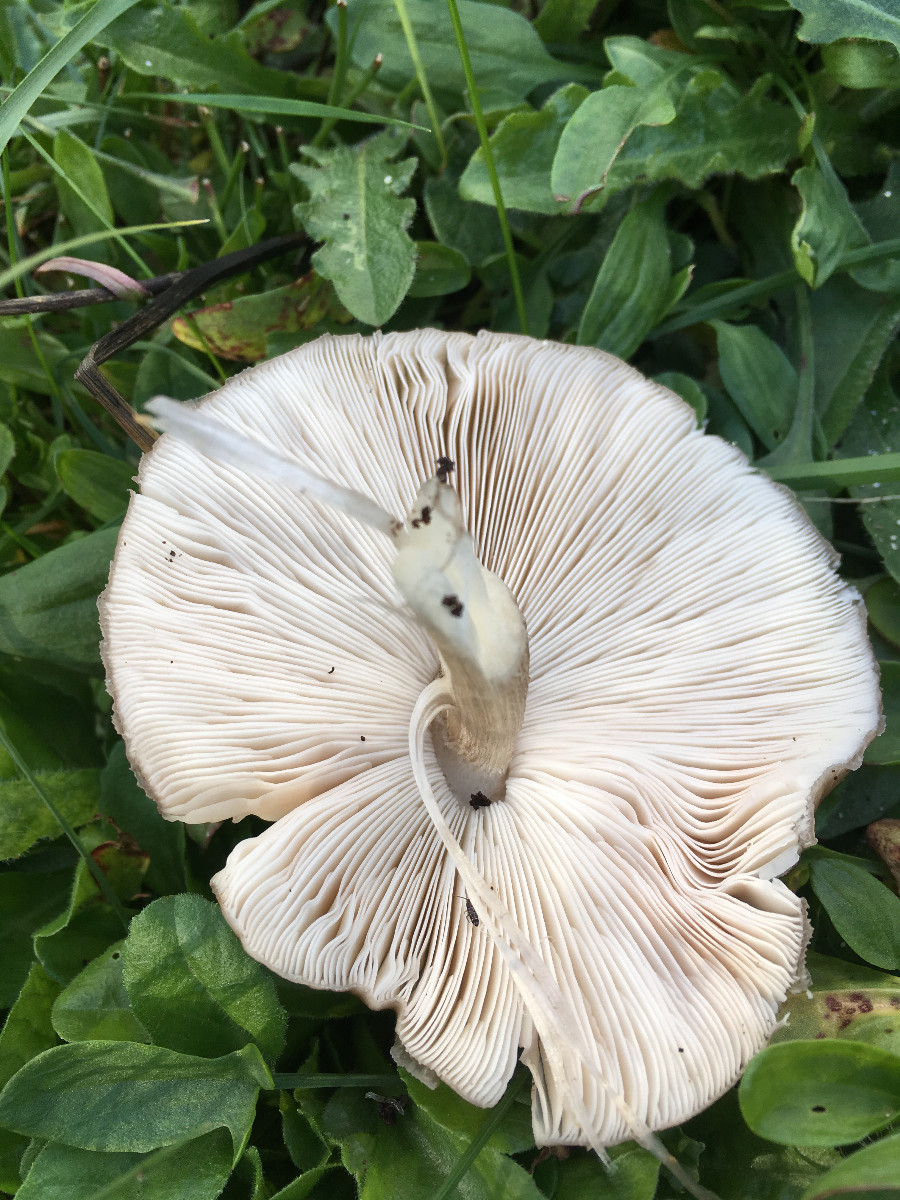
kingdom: Fungi
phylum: Basidiomycota
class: Agaricomycetes
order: Agaricales
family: Pluteaceae
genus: Pluteus
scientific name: Pluteus cervinus
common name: sodfarvet skærmhat
